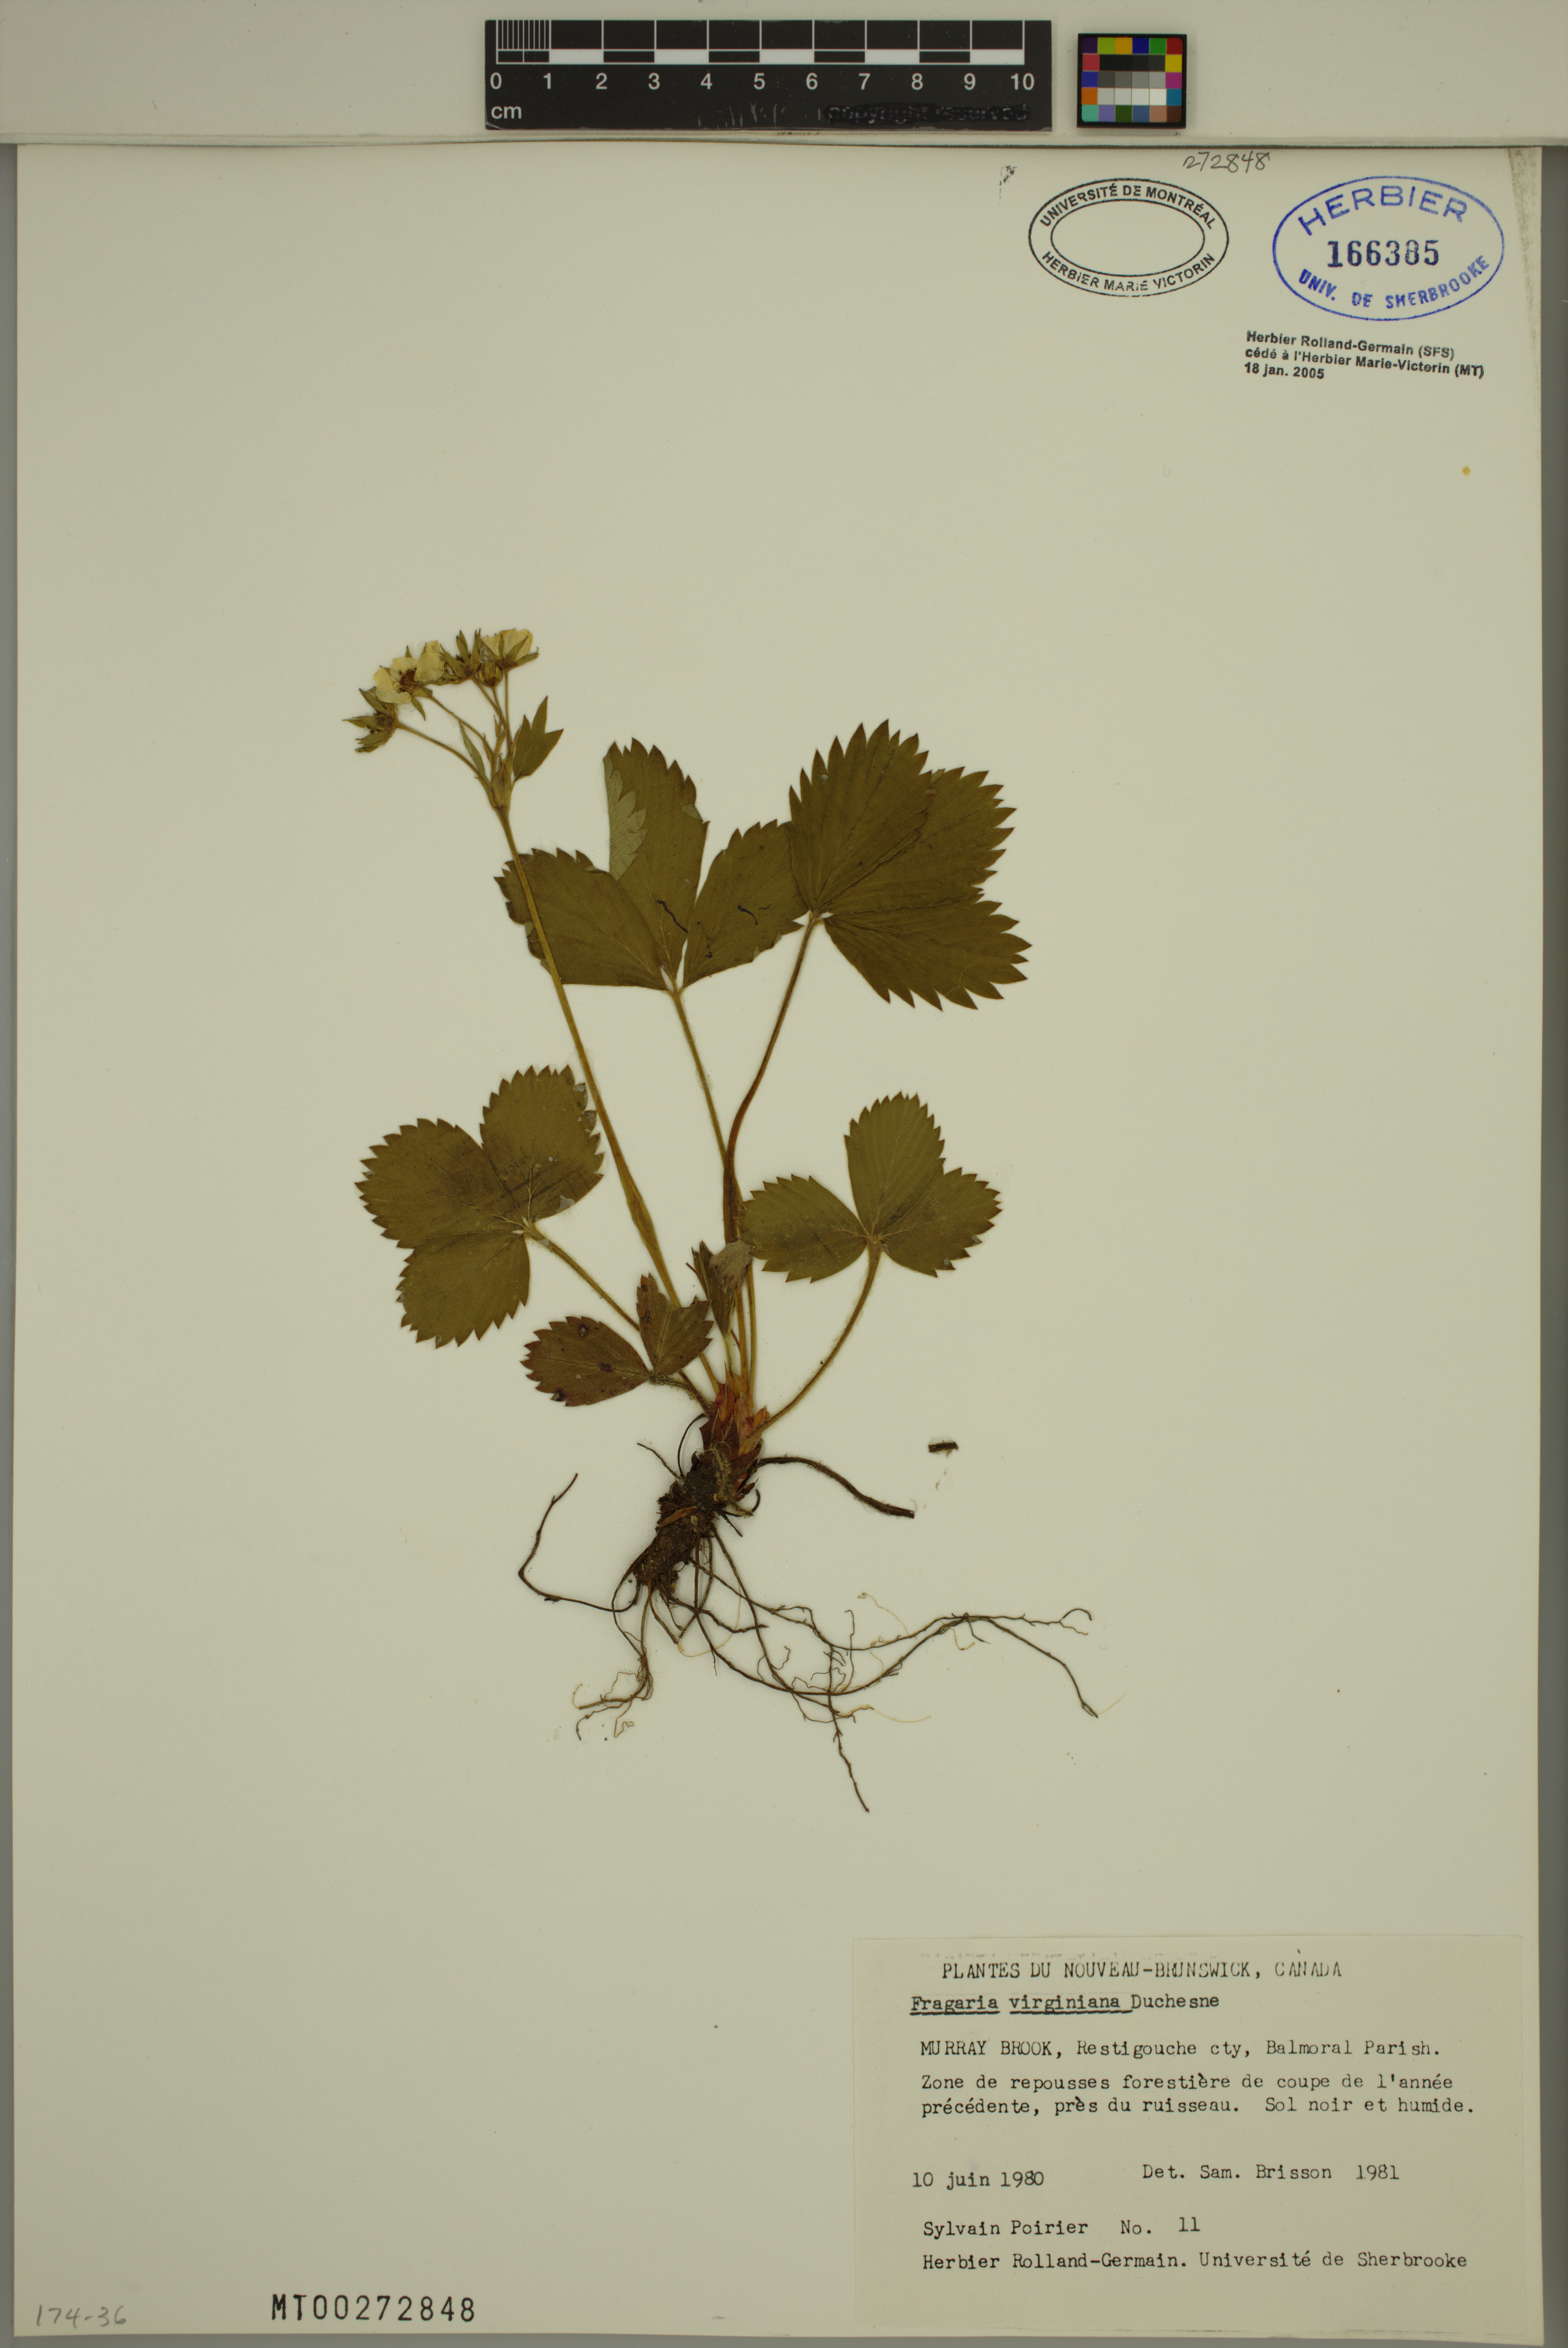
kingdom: Plantae
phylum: Tracheophyta
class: Magnoliopsida
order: Rosales
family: Rosaceae
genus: Fragaria
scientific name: Fragaria virginiana
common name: Thickleaved wild strawberry
